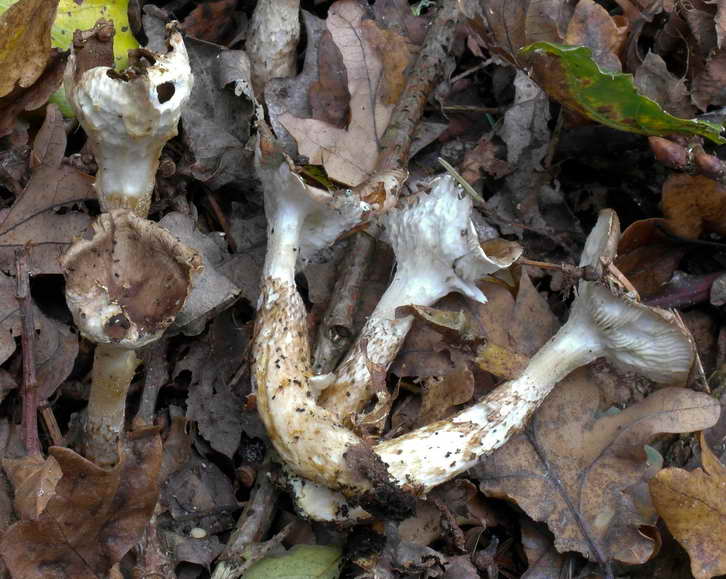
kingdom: Fungi
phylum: Basidiomycota
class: Agaricomycetes
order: Agaricales
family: Hygrophoraceae
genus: Hygrophorus
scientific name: Hygrophorus glutinifer
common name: tvefarvet sneglehat
